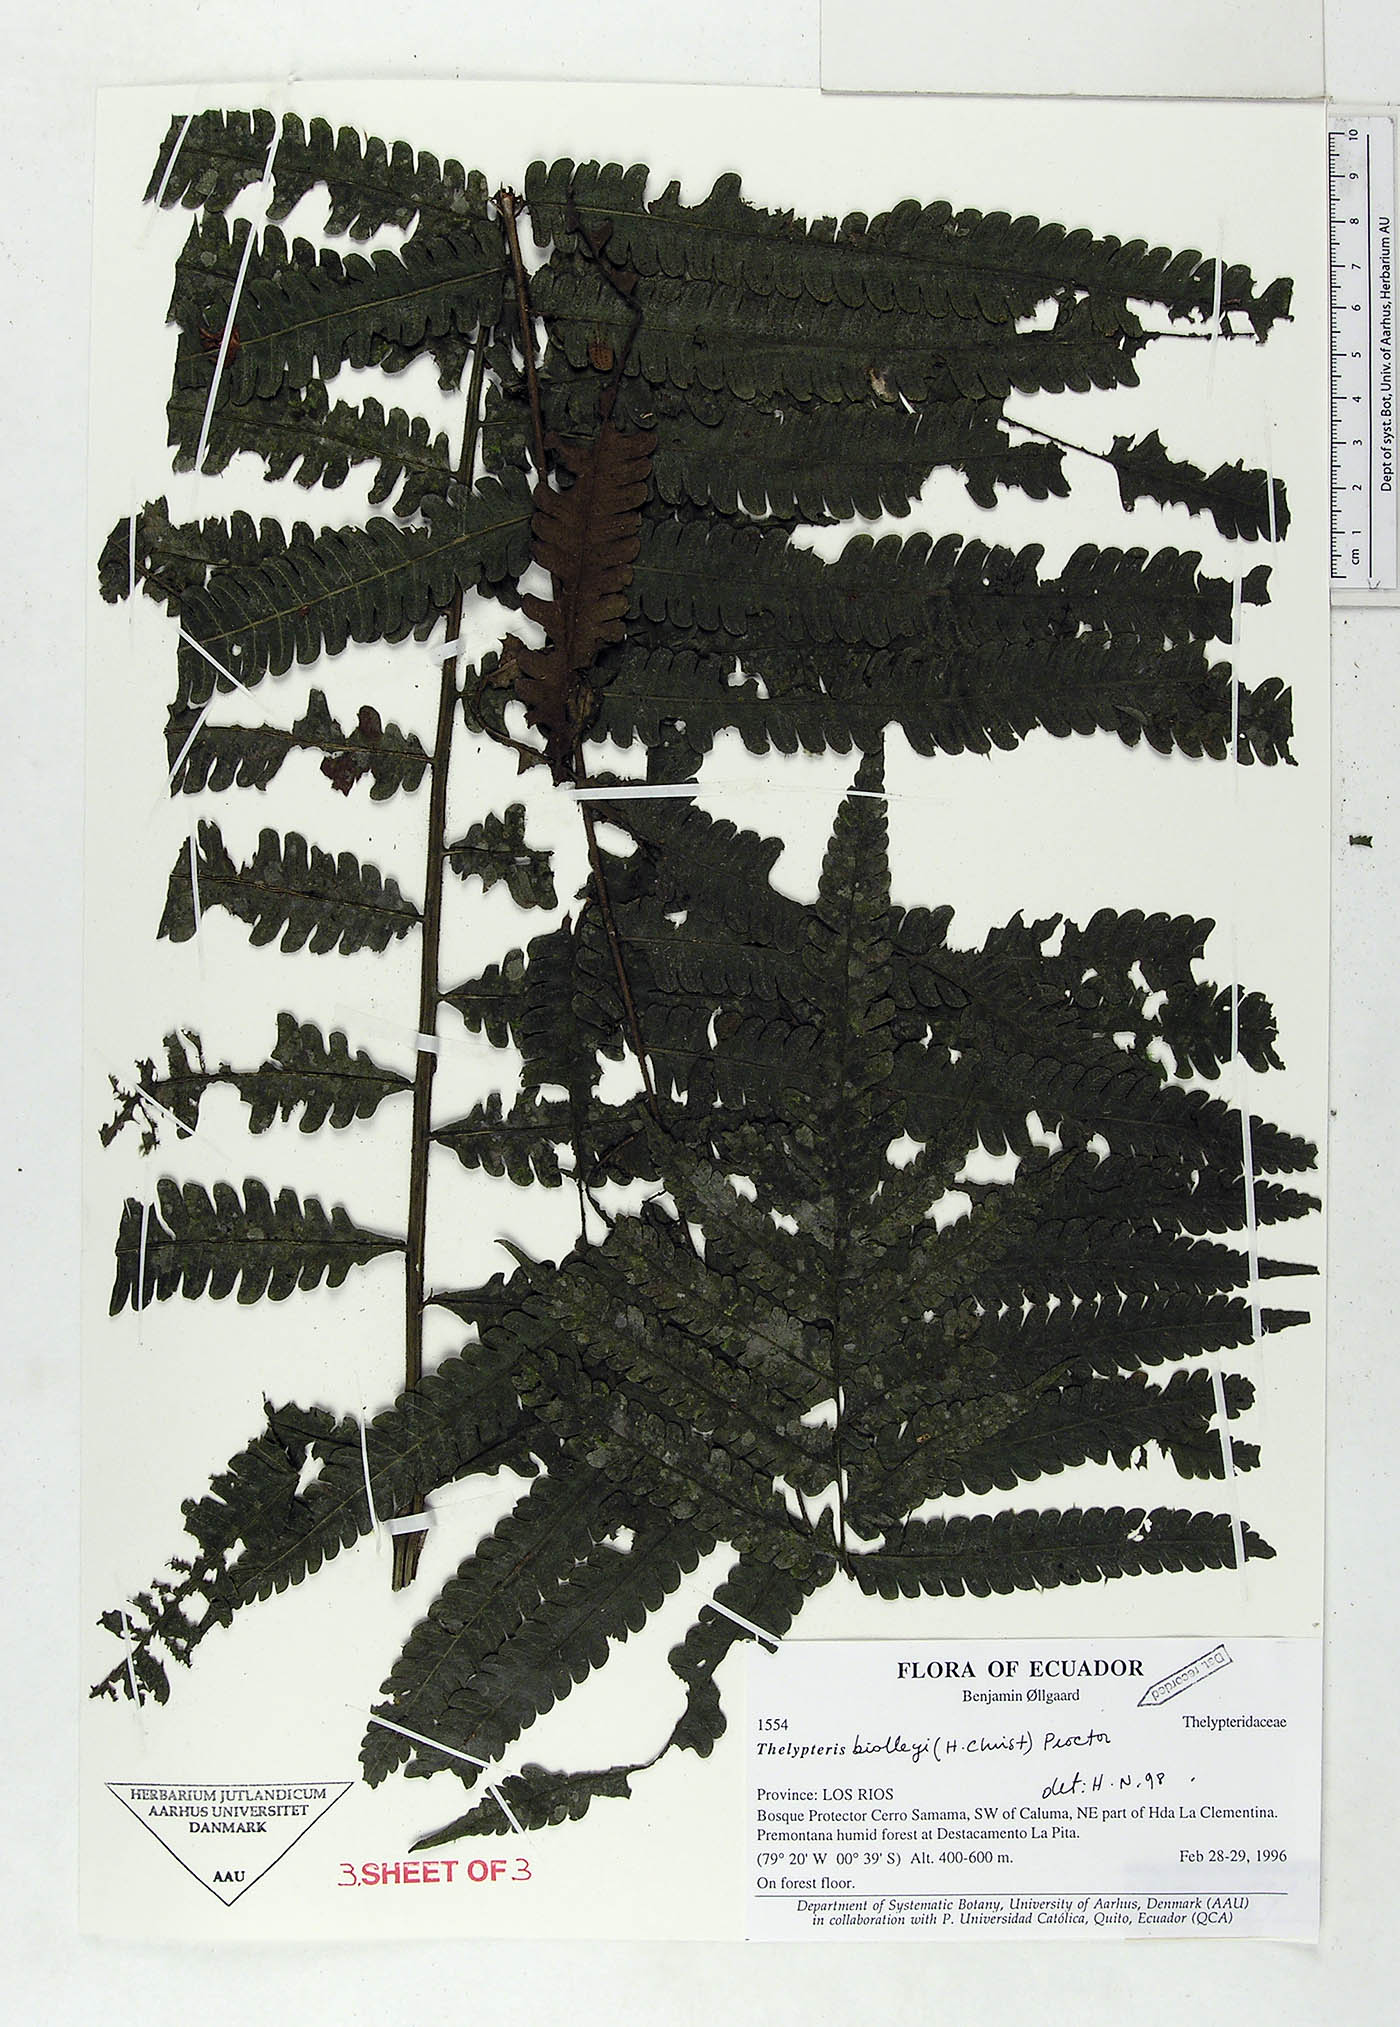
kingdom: Plantae
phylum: Tracheophyta
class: Polypodiopsida
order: Polypodiales
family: Thelypteridaceae
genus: Goniopteris
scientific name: Goniopteris biolleyi
